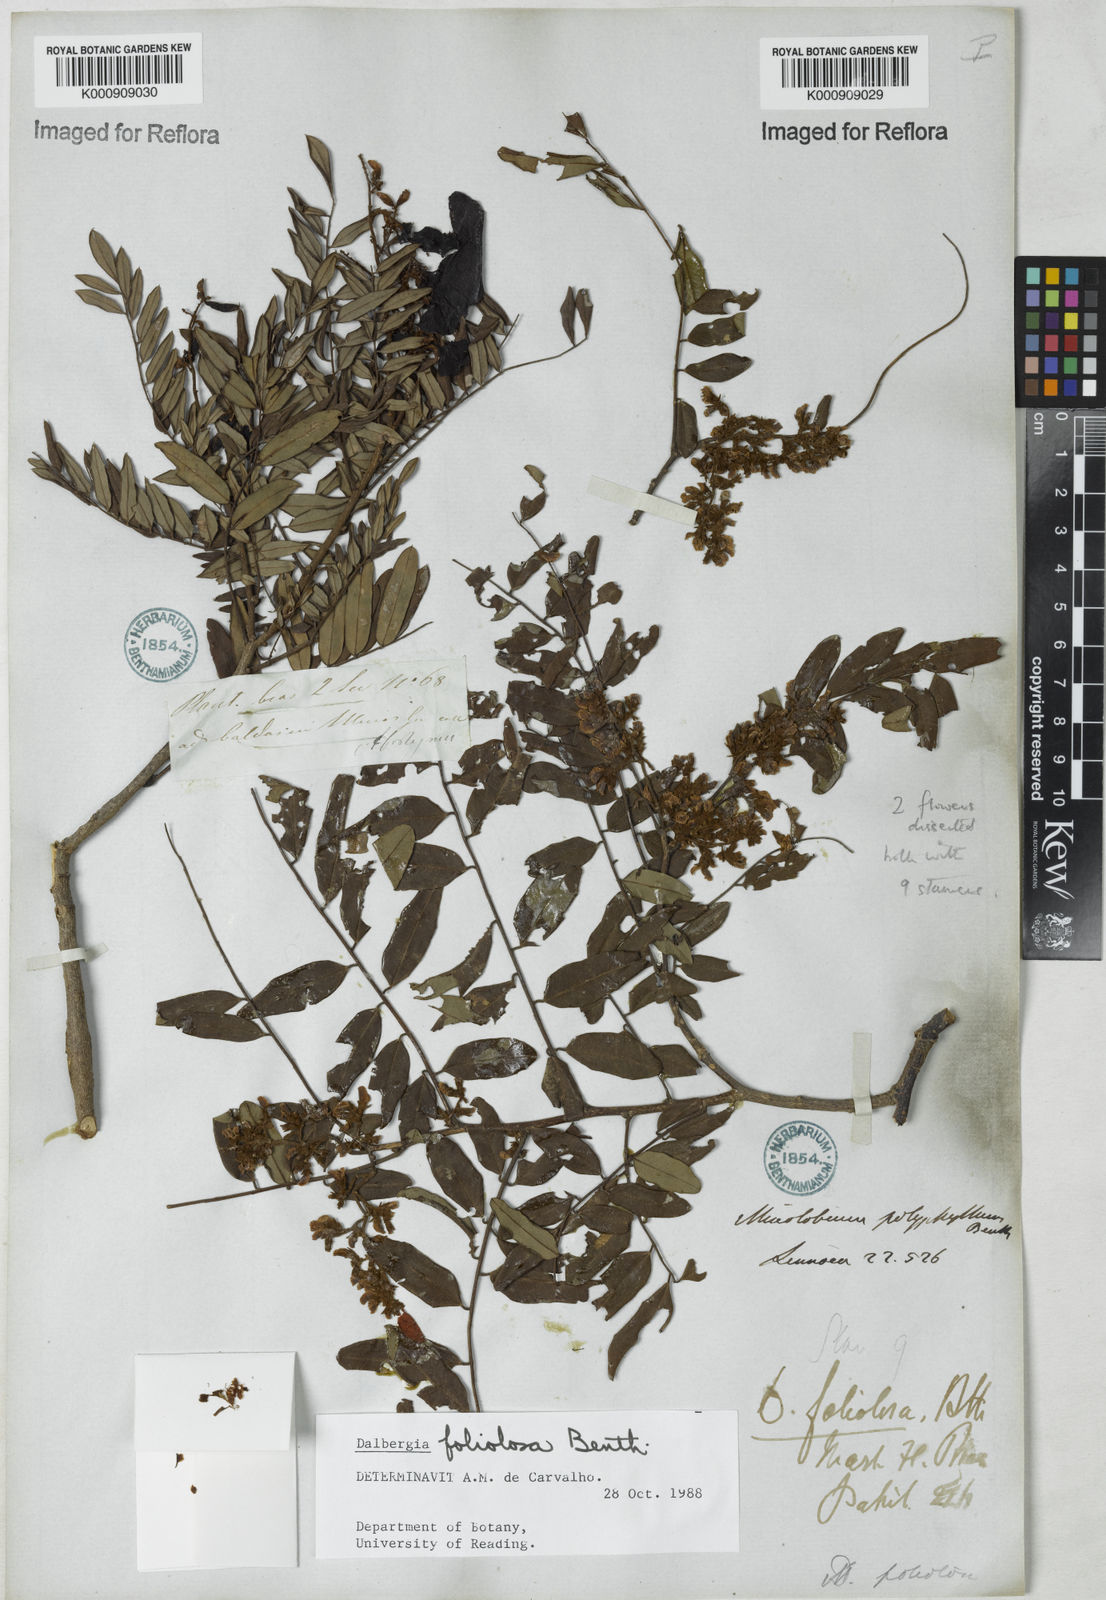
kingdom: Plantae
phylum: Tracheophyta
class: Magnoliopsida
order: Fabales
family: Fabaceae
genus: Dalbergia
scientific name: Dalbergia foliolosa
